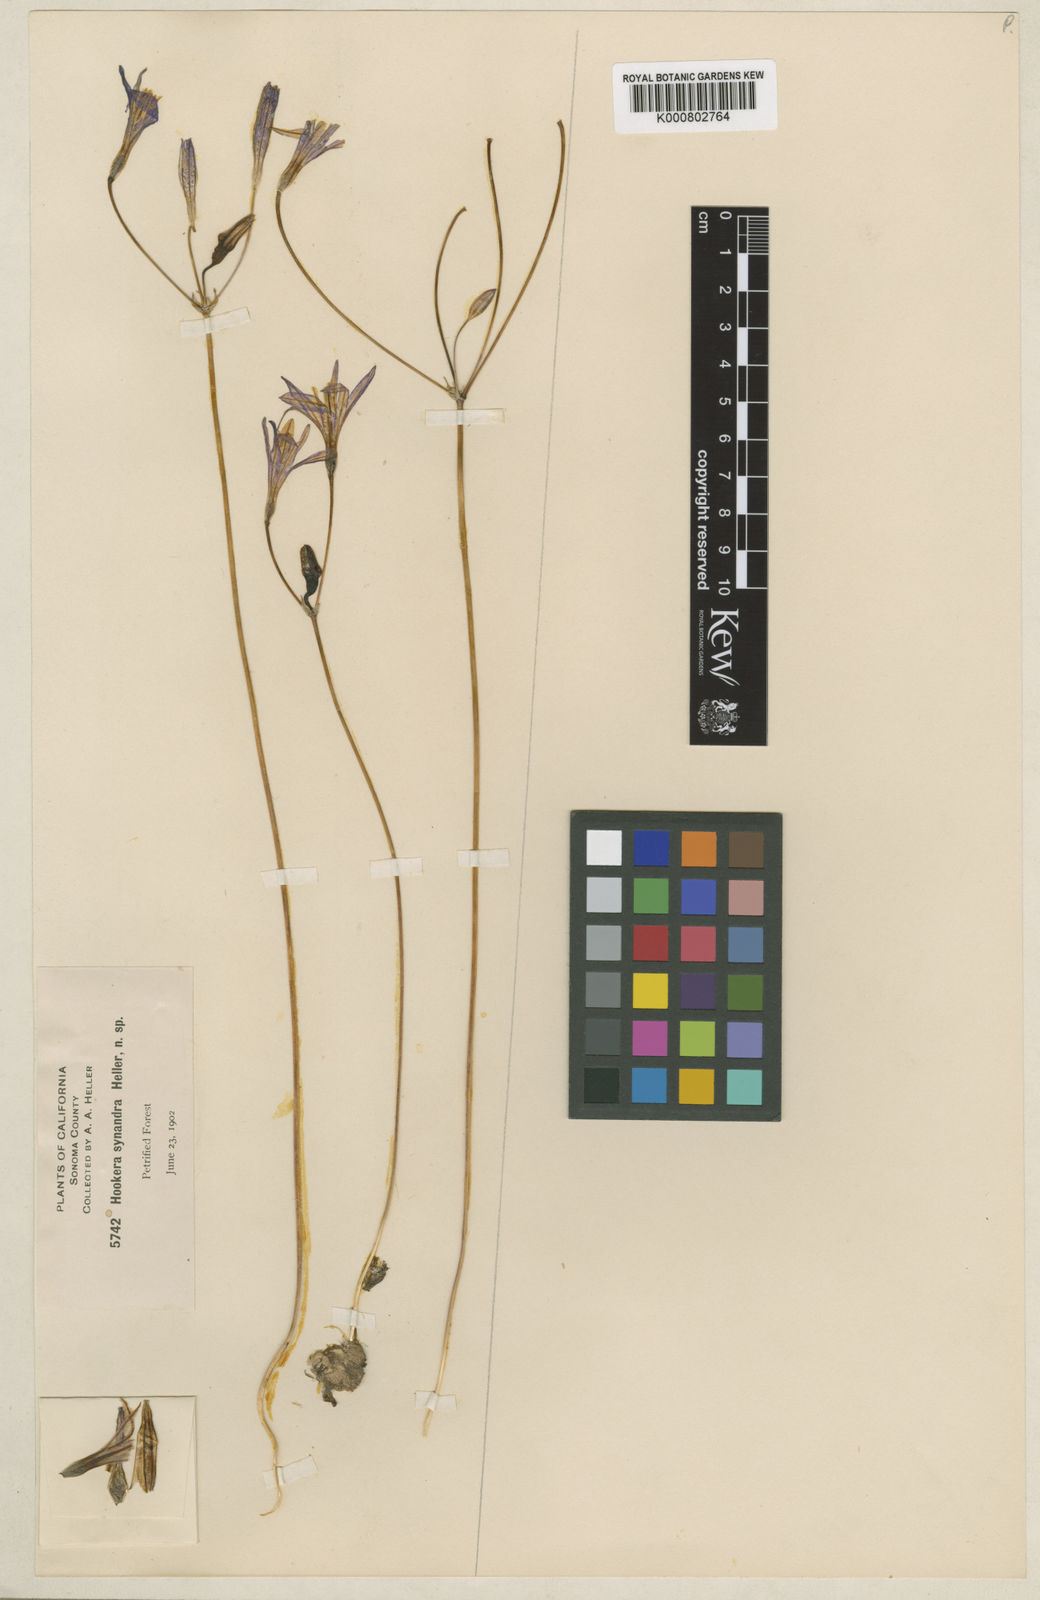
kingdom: Plantae
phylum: Tracheophyta
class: Liliopsida
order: Asparagales
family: Asparagaceae
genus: Brodiaea
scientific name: Brodiaea californica
